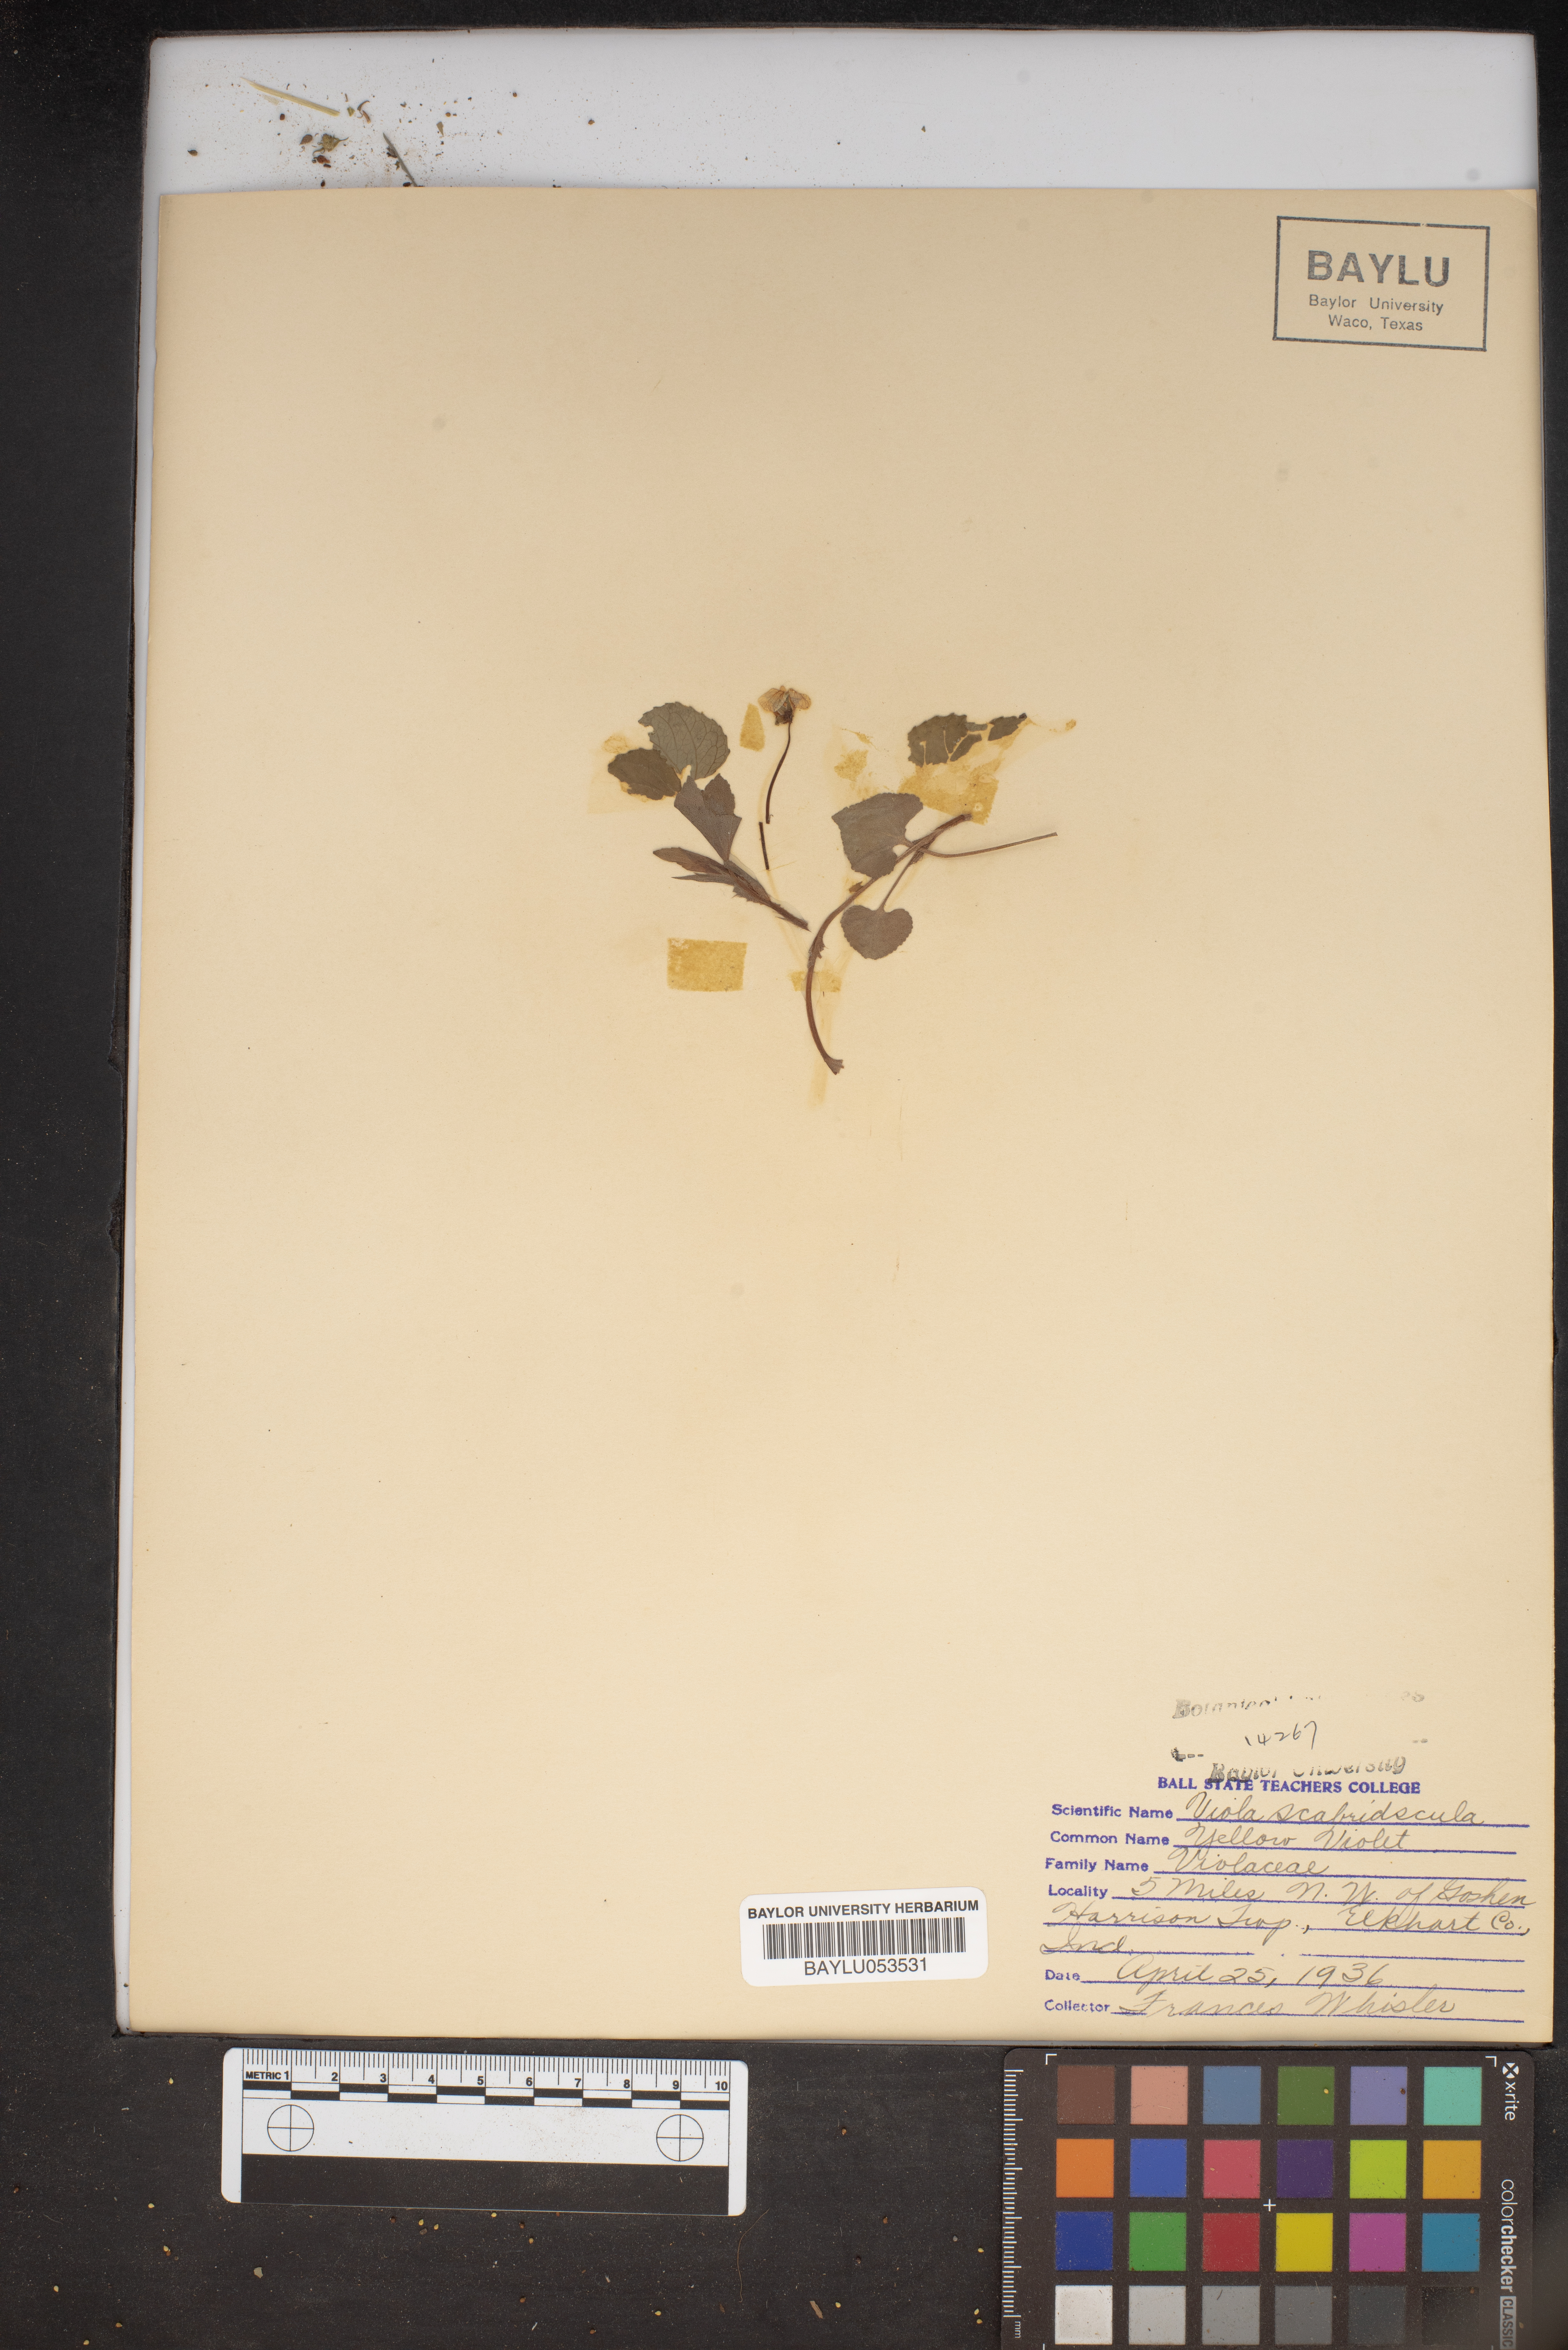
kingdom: Plantae
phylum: Tracheophyta
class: Magnoliopsida
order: Malpighiales
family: Violaceae
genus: Viola
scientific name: Viola eriocarpa
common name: Smooth yellow violet
